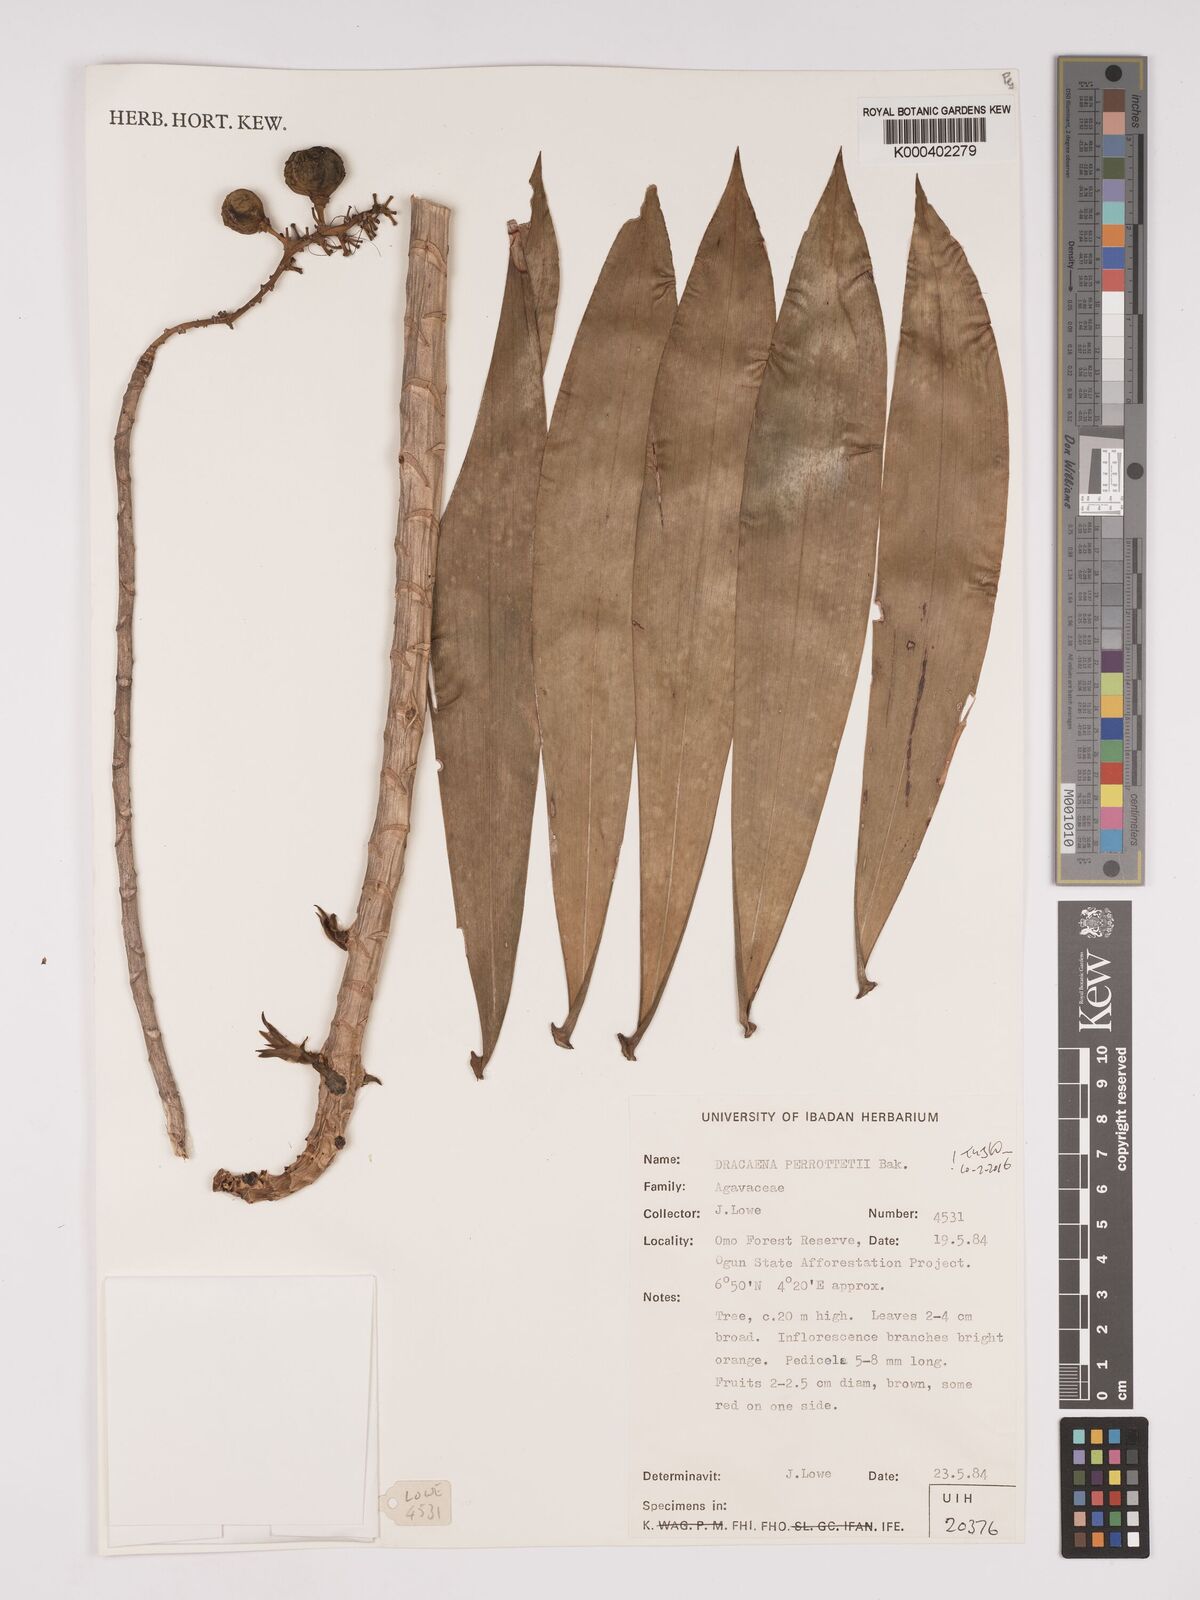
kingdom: Plantae
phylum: Tracheophyta
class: Liliopsida
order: Asparagales
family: Asparagaceae
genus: Dracaena
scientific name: Dracaena perrottetii
